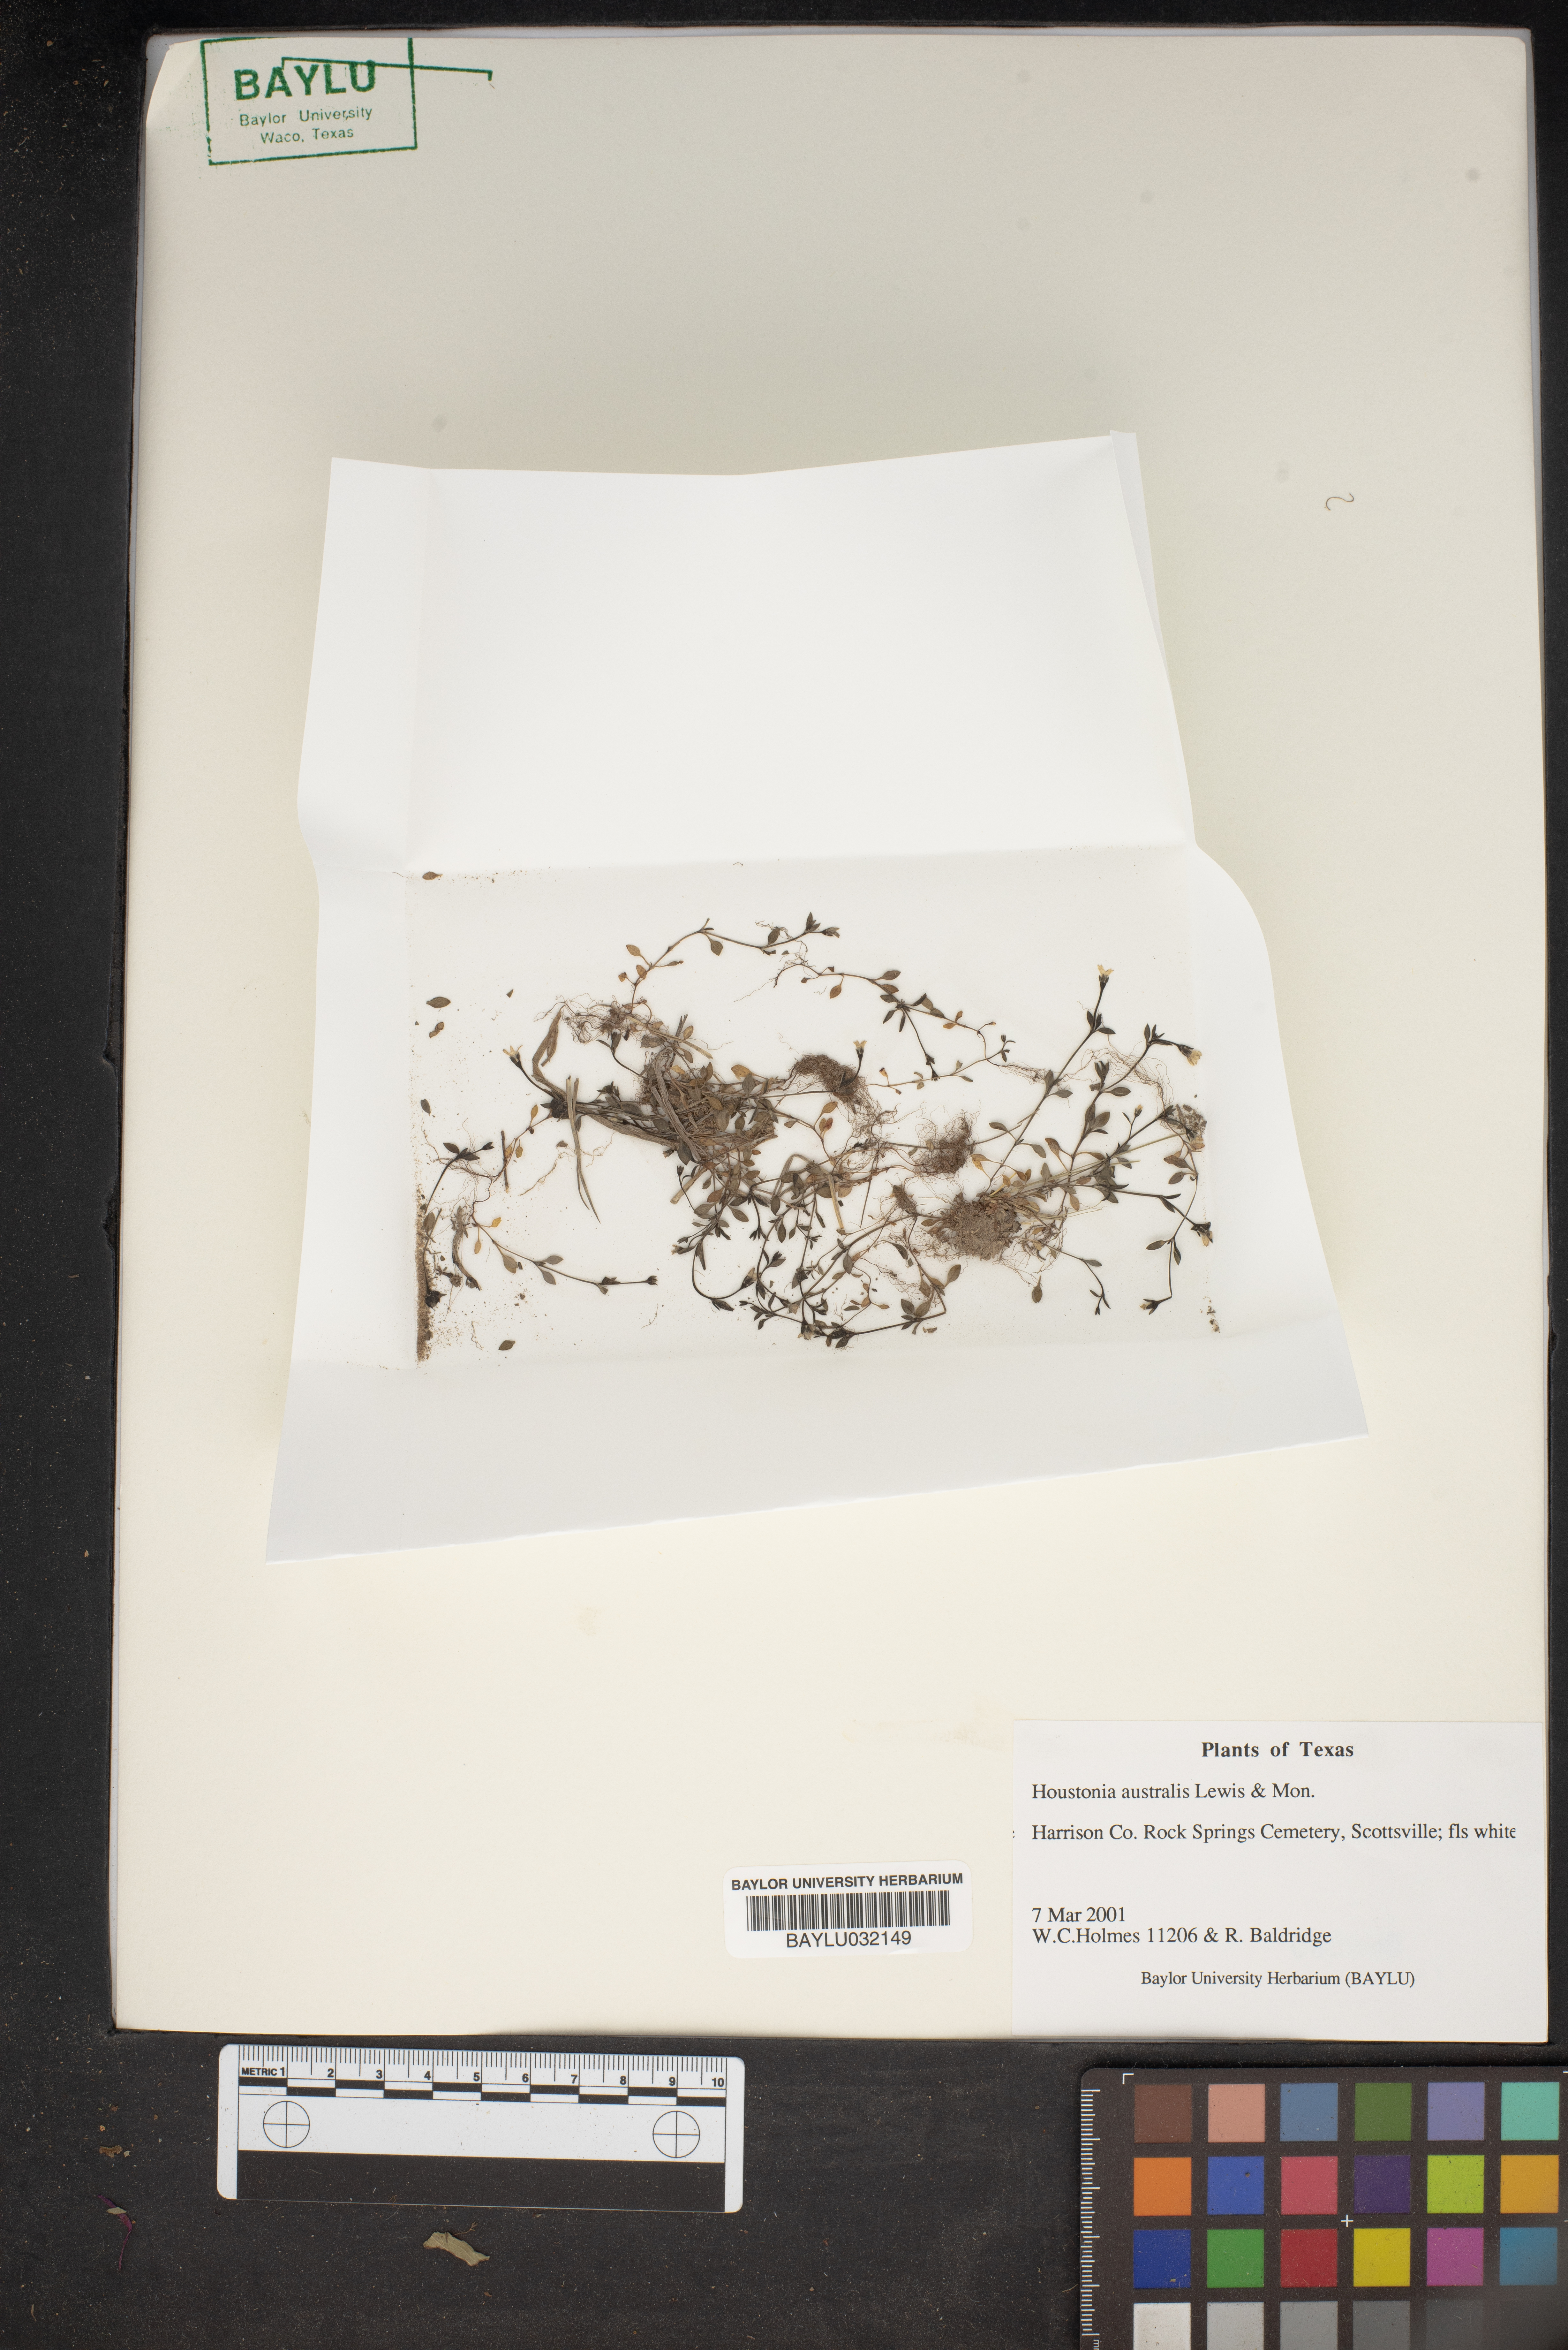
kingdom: Plantae
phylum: Tracheophyta
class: Magnoliopsida
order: Gentianales
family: Rubiaceae
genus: Stenotis
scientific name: Stenotis australis
